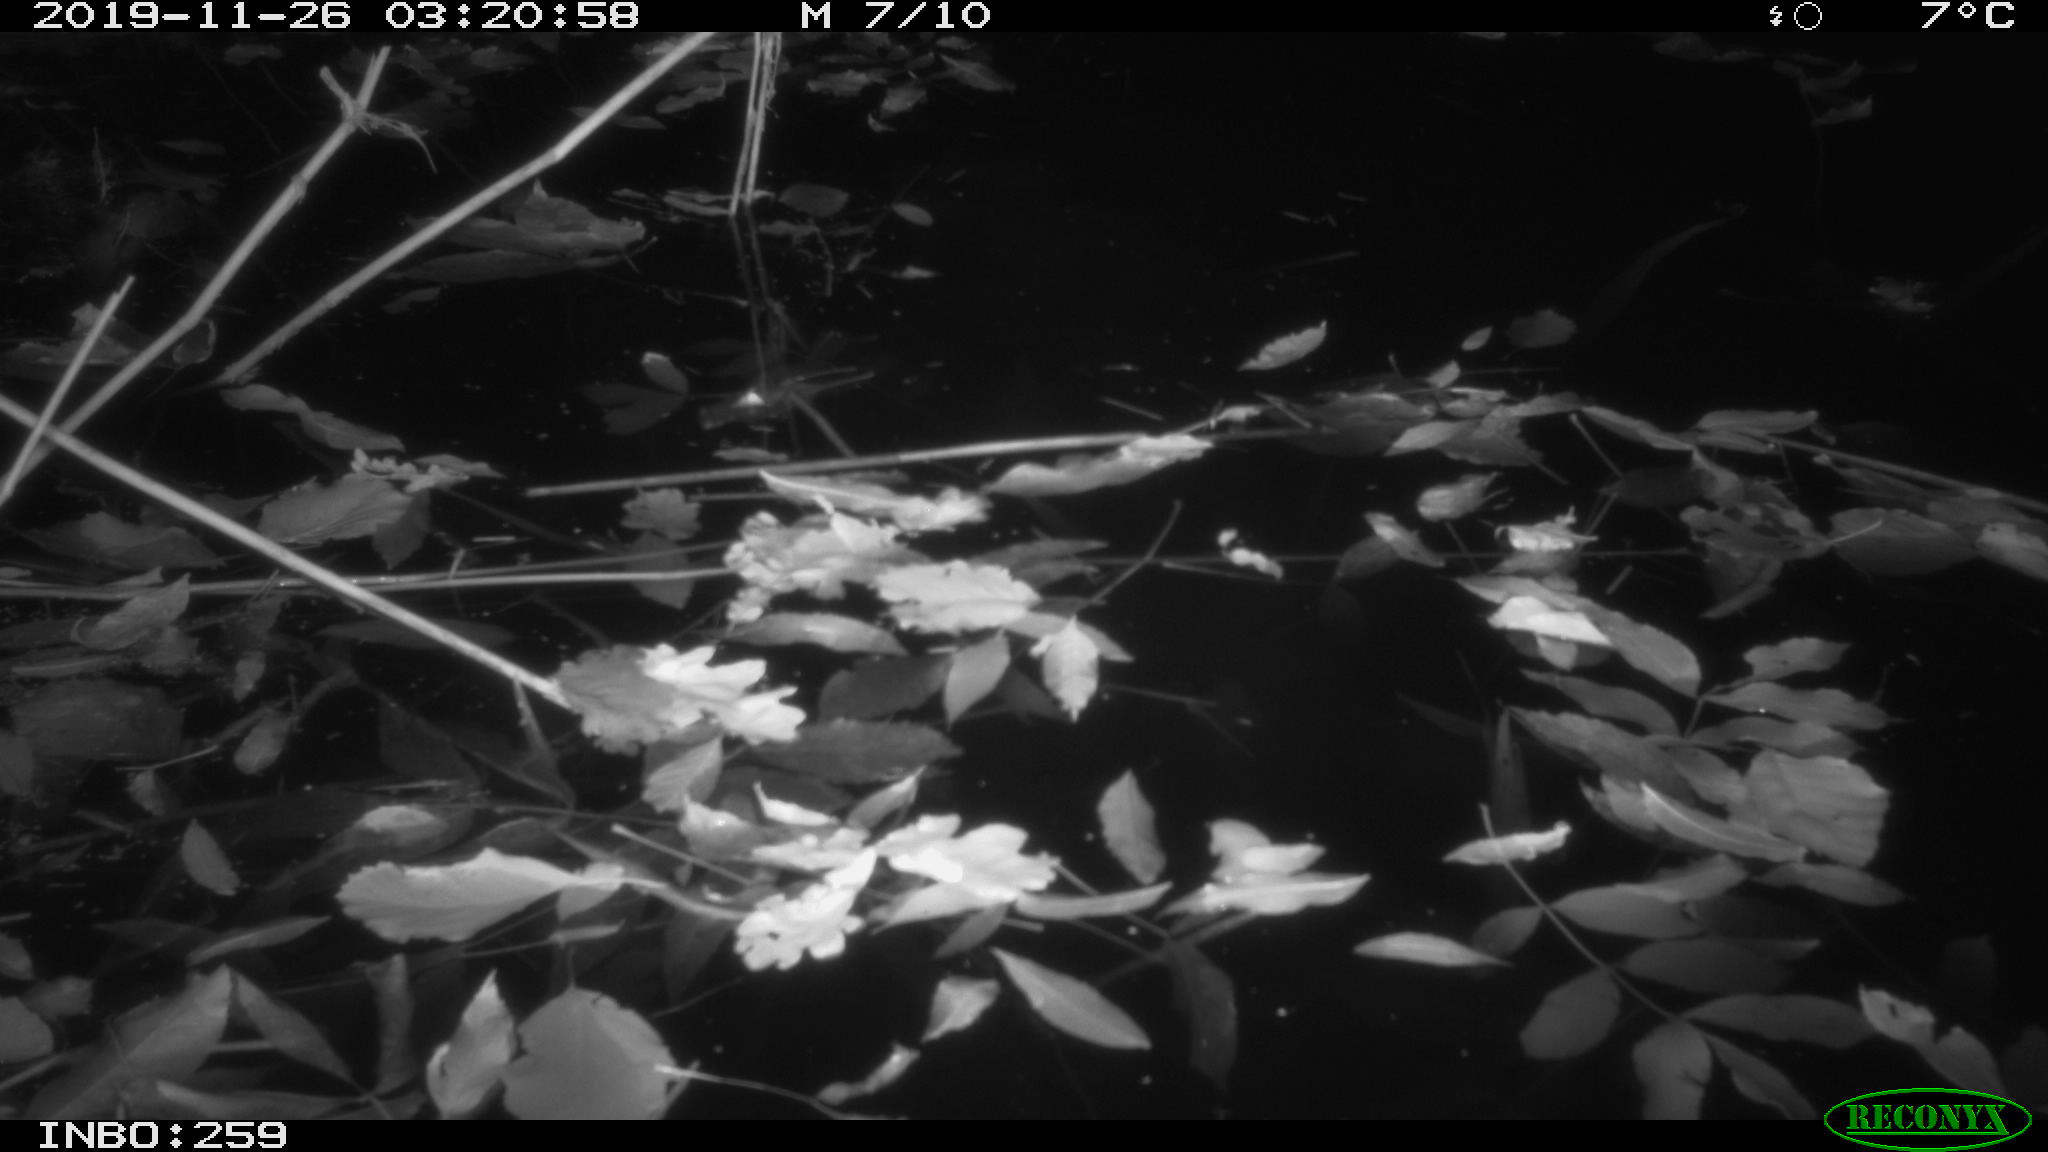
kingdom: Animalia
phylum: Chordata
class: Mammalia
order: Rodentia
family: Muridae
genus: Rattus
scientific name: Rattus norvegicus
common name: Brown rat
